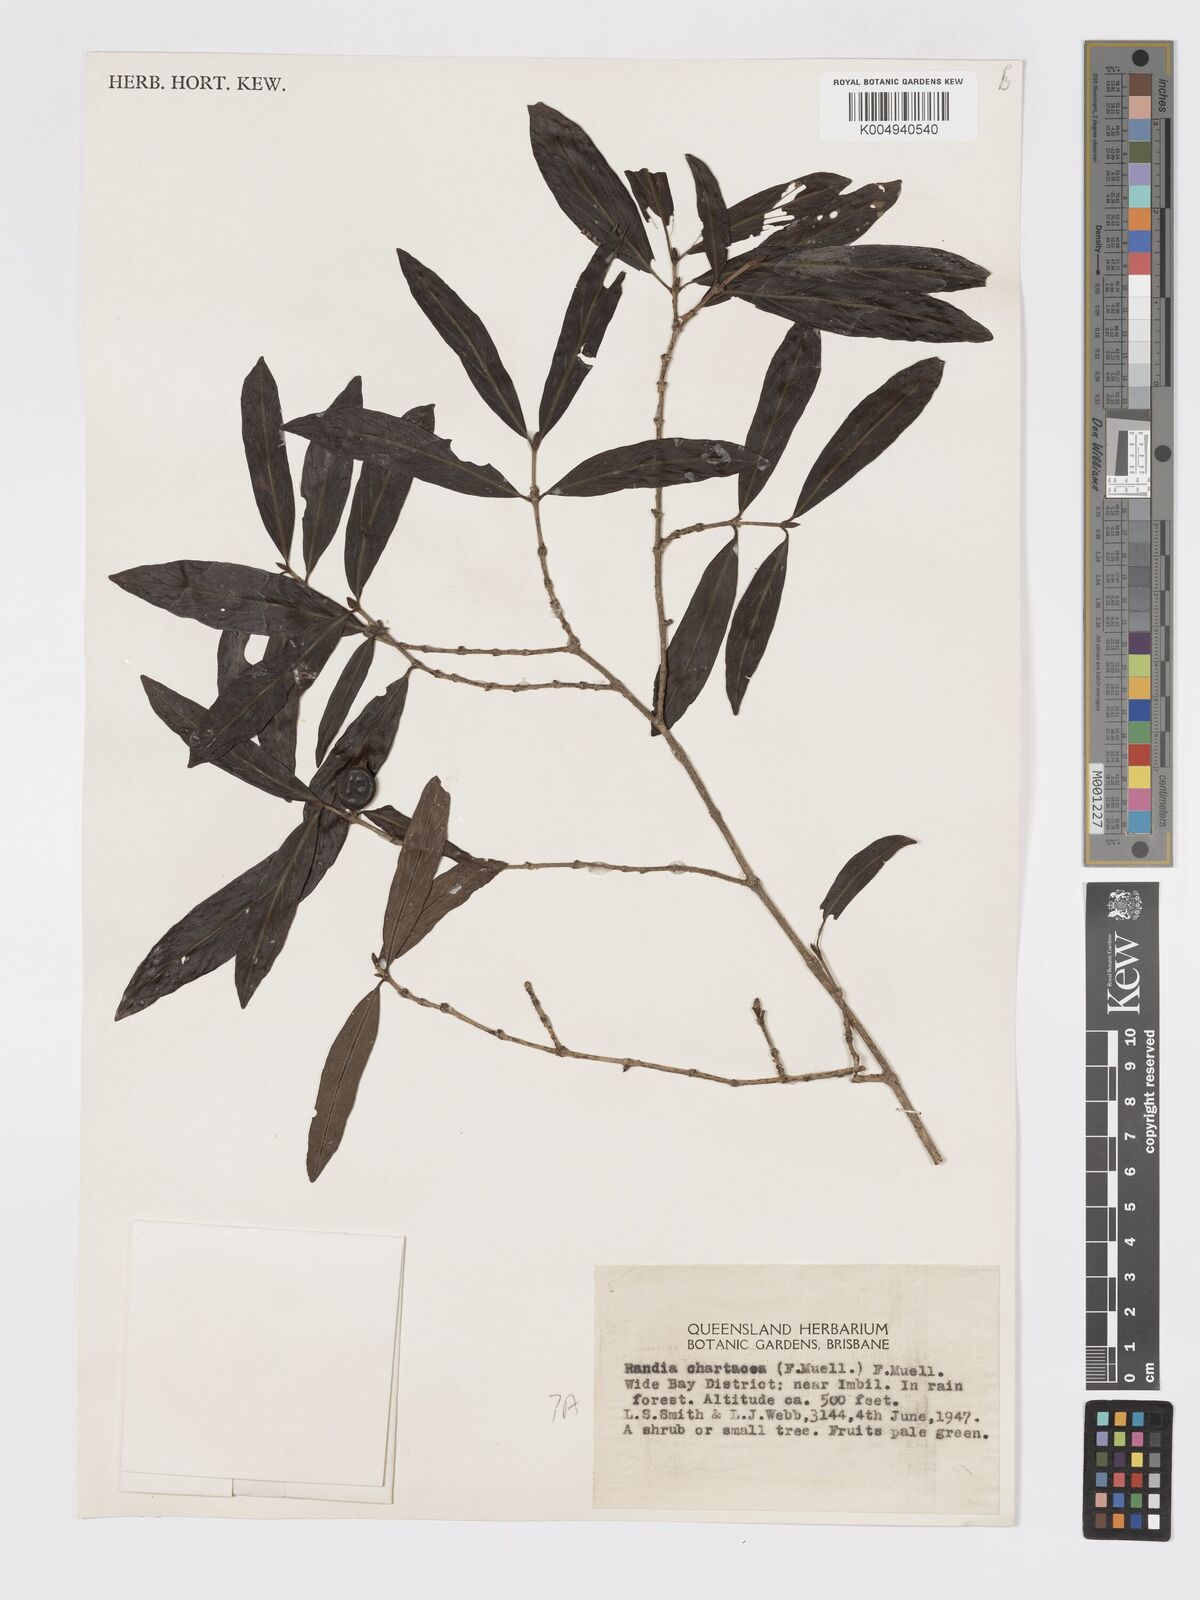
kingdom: Plantae
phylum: Tracheophyta
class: Magnoliopsida
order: Gentianales
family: Rubiaceae
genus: Atractocarpus
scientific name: Atractocarpus chartaceus
